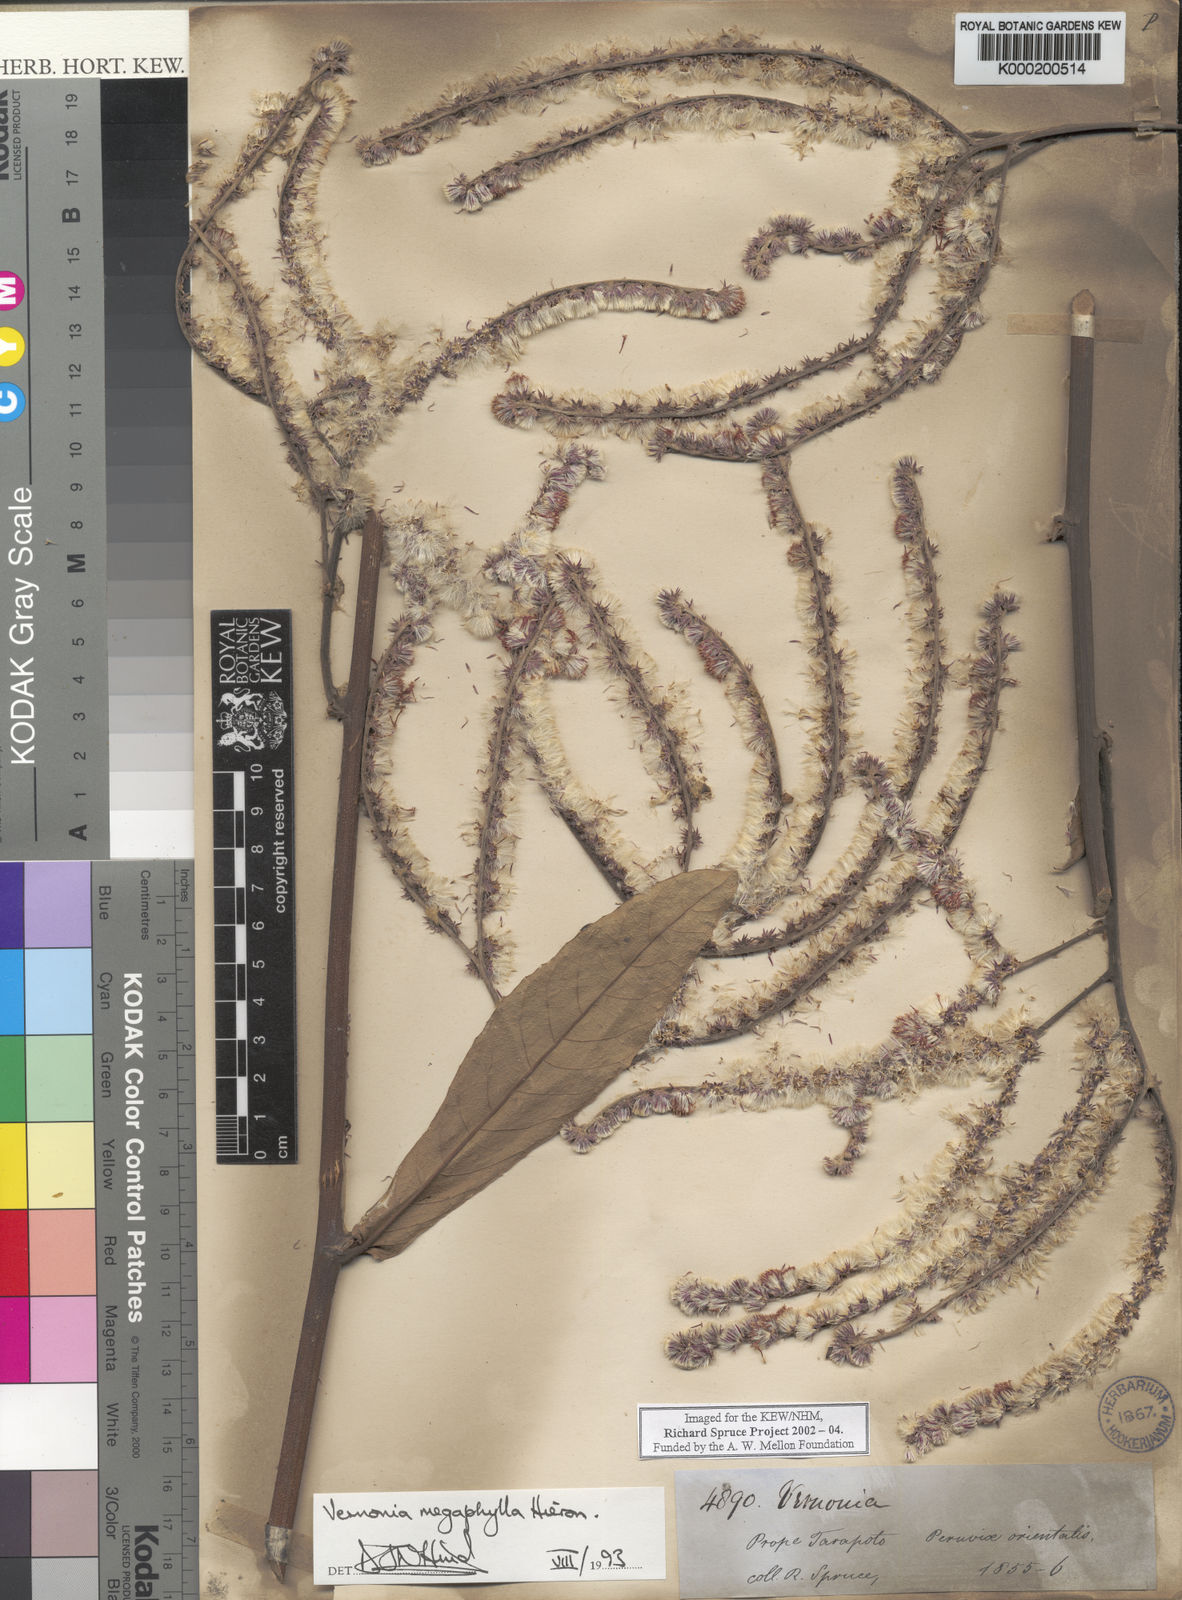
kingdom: Plantae
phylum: Tracheophyta
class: Magnoliopsida
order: Asterales
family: Asteraceae
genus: Eirmocephala
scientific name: Eirmocephala megaphylla
